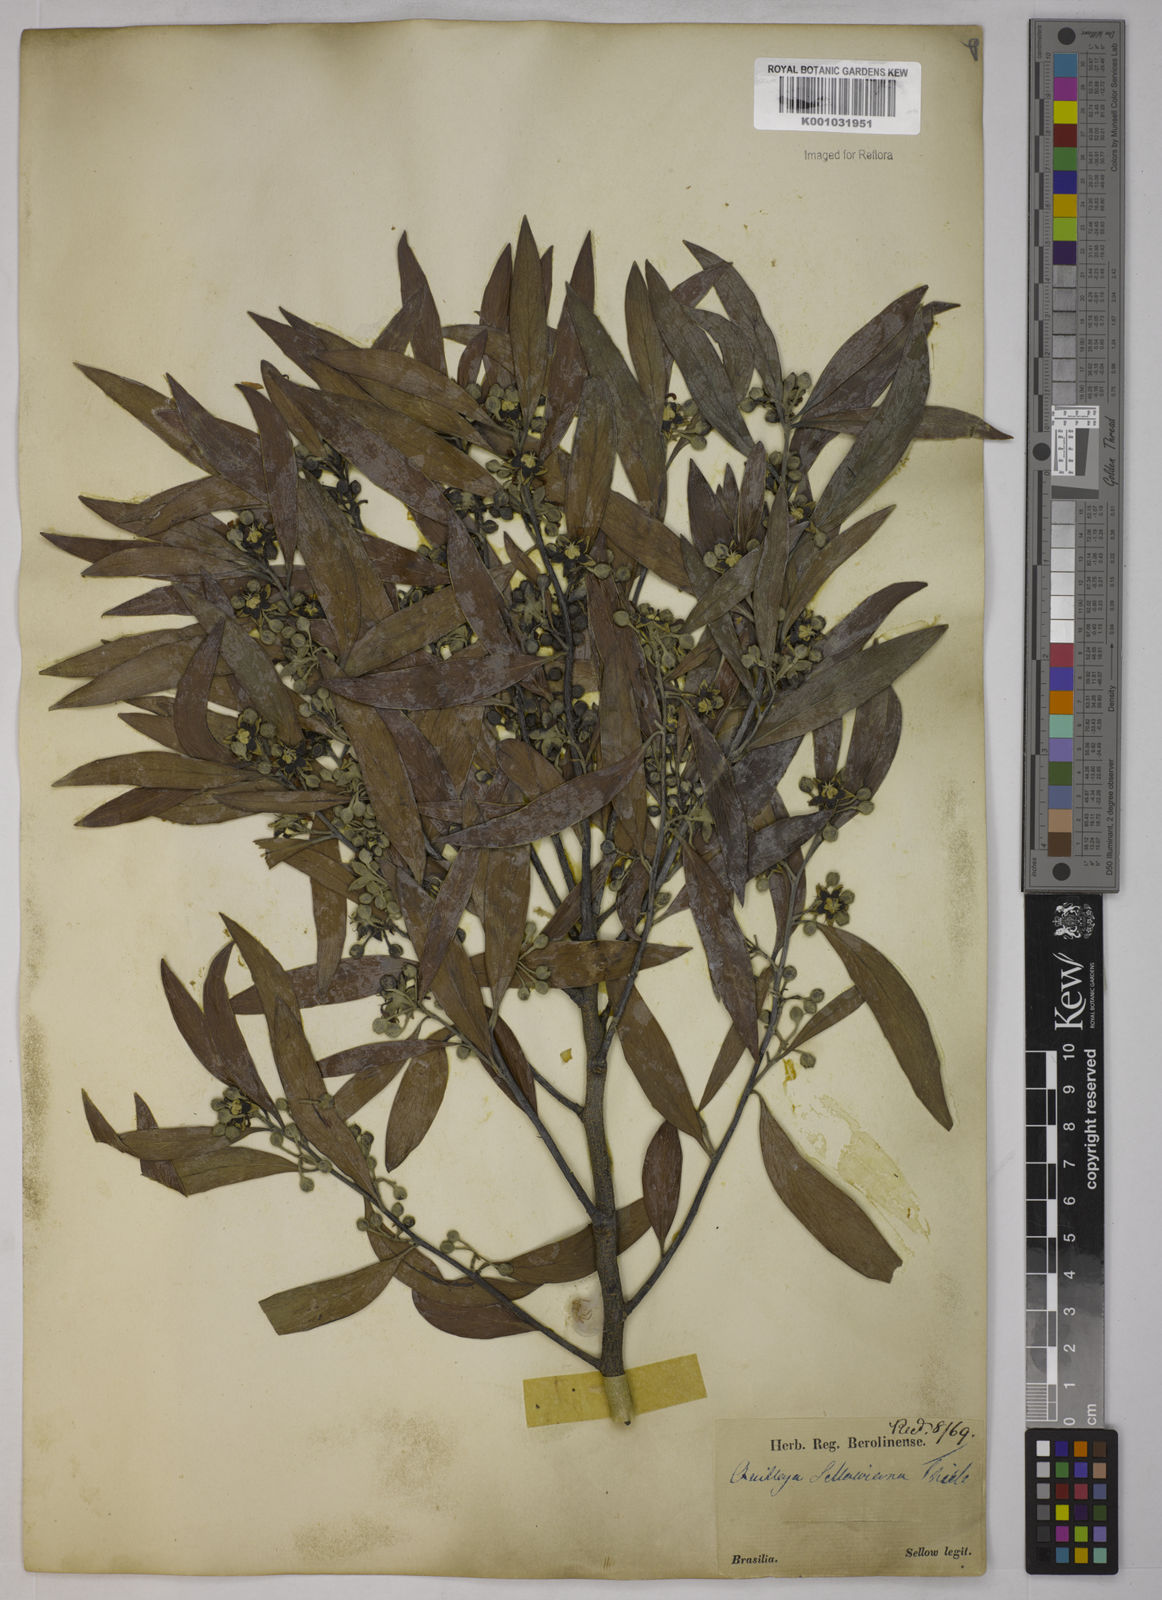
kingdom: Plantae
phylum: Tracheophyta
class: Magnoliopsida
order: Fabales
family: Quillajaceae
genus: Quillaja
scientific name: Quillaja brasiliensis
